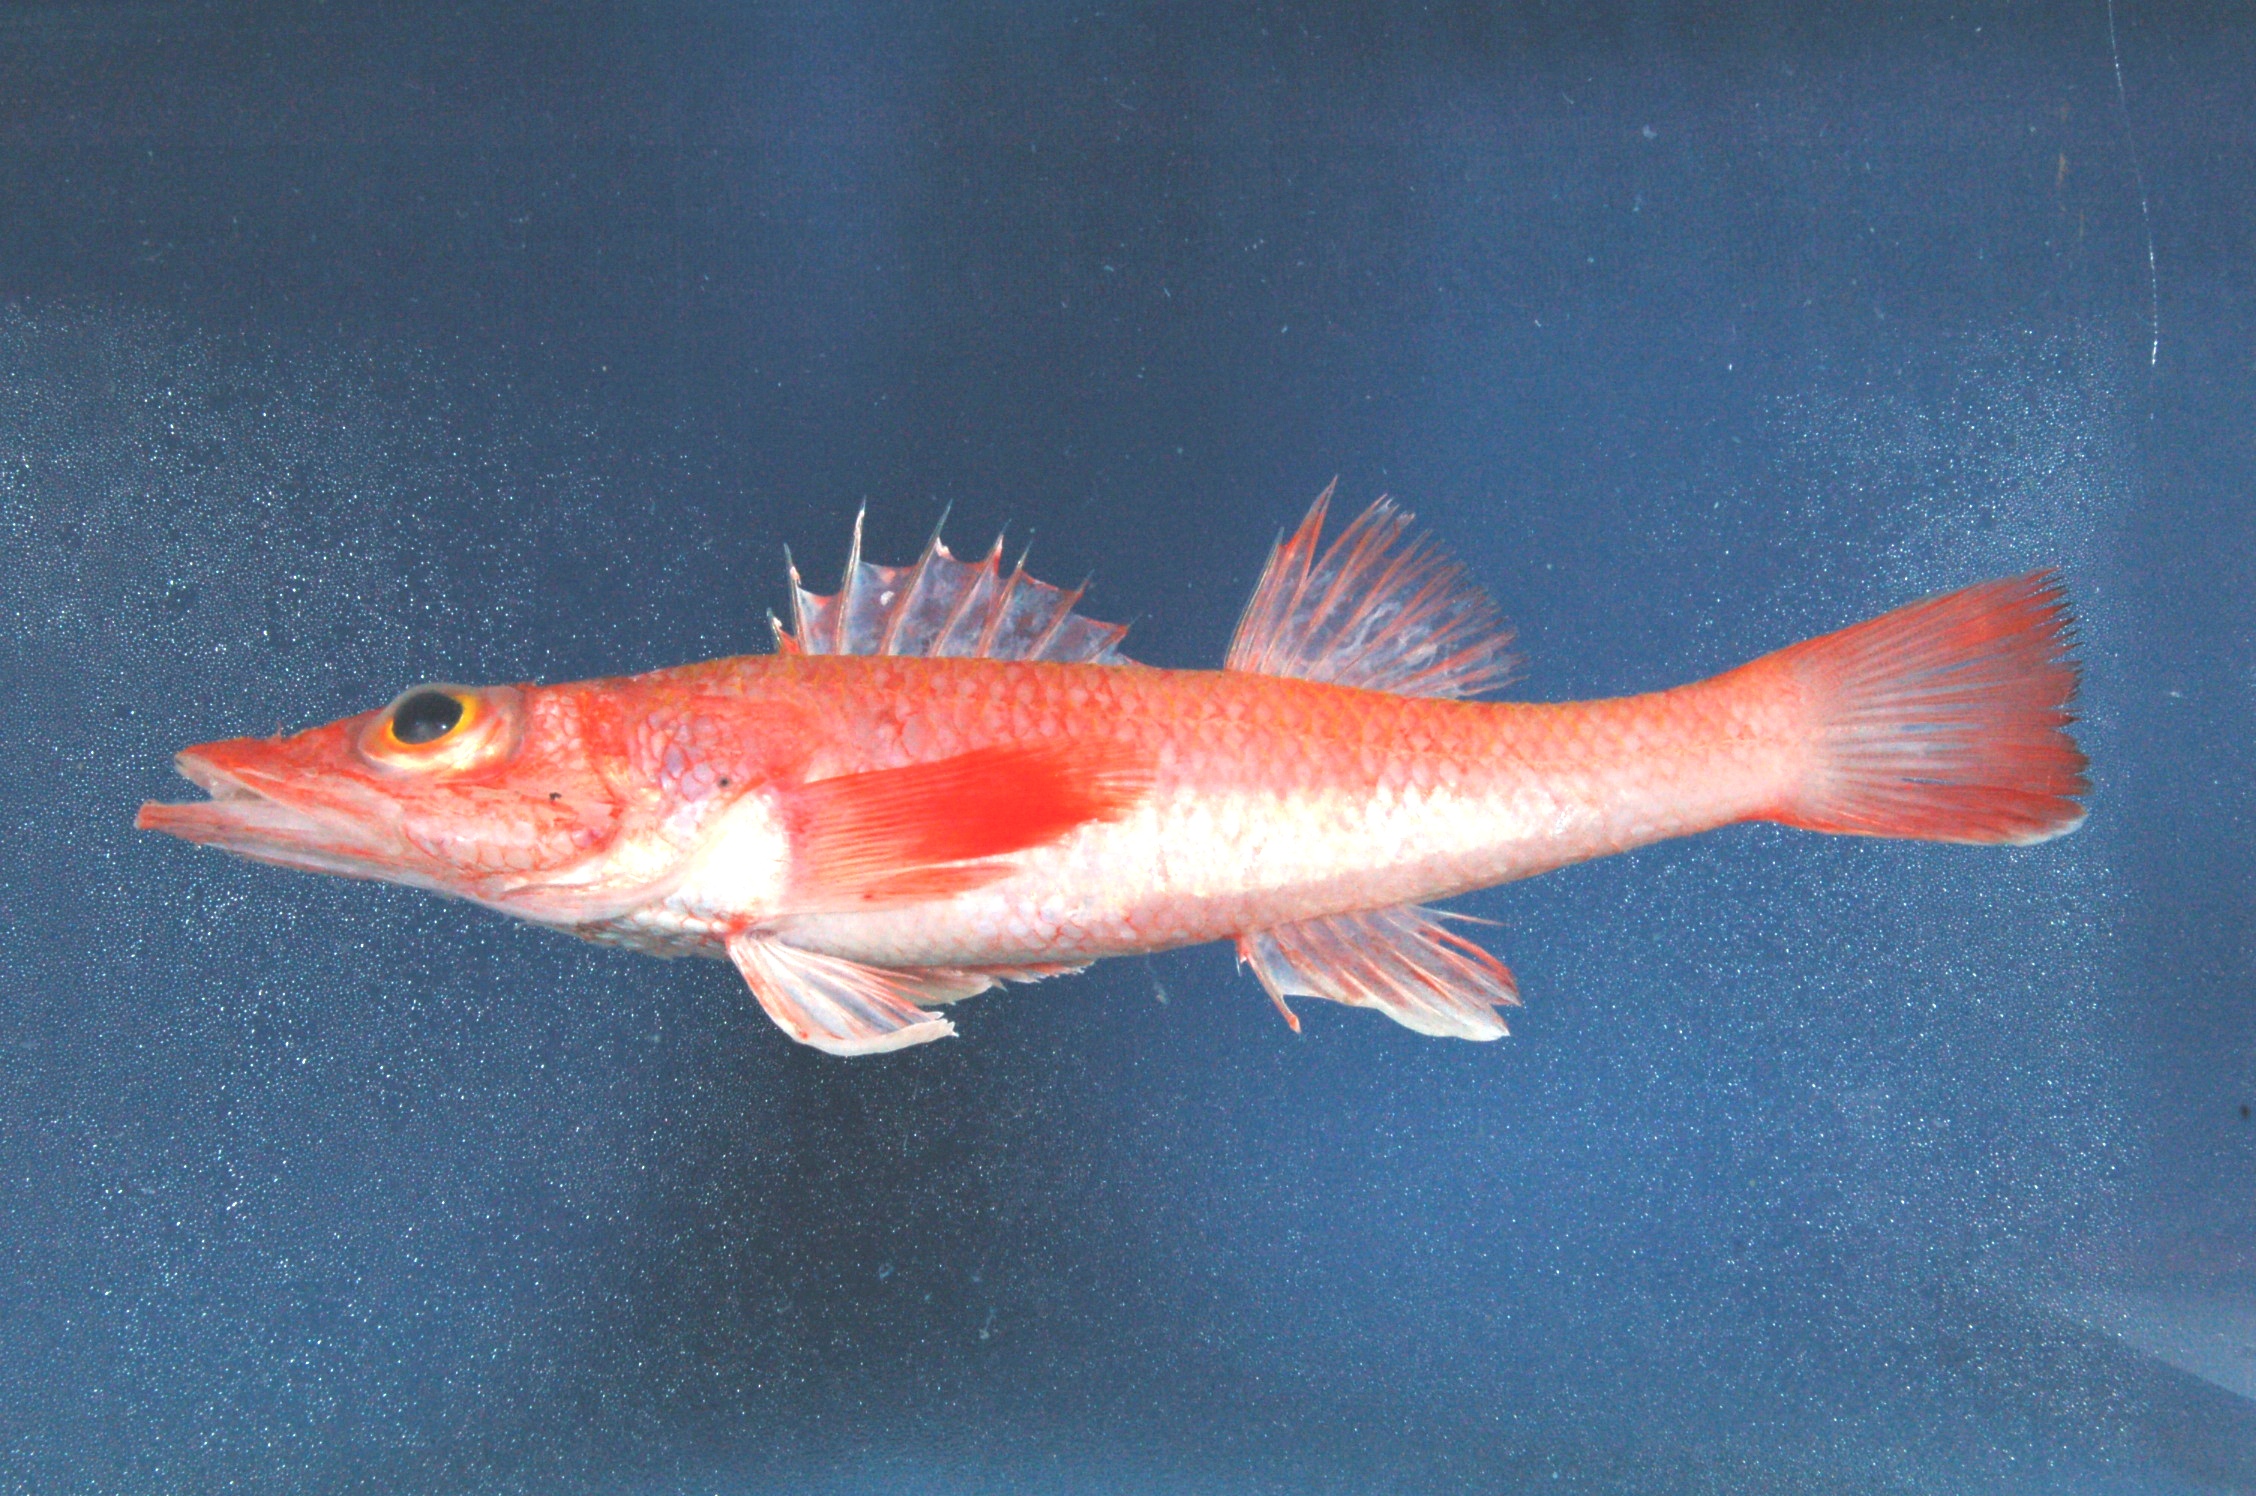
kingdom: Animalia
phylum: Chordata
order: Scorpaeniformes
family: Parabembridae
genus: Parabembras
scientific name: Parabembras robinsoni
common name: African deep-water flathead
